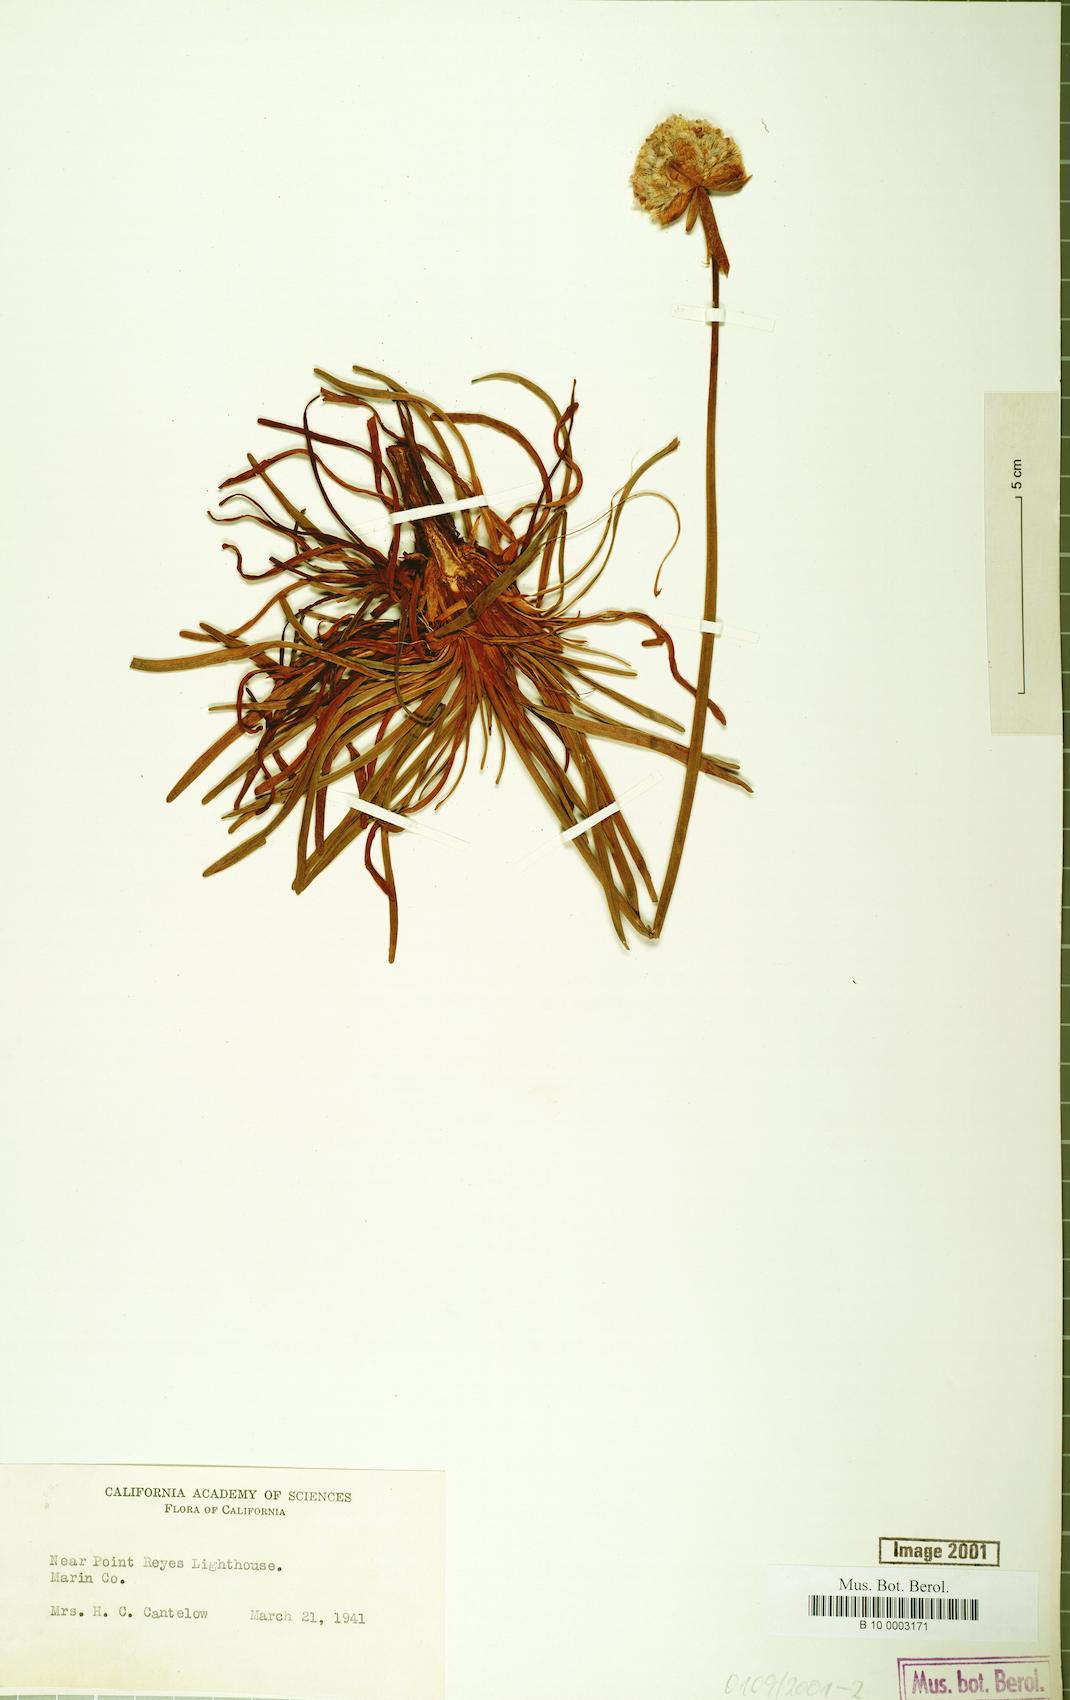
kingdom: Plantae
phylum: Tracheophyta
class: Magnoliopsida
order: Caryophyllales
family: Plumbaginaceae
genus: Armeria
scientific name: Armeria maritima
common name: Thrift
